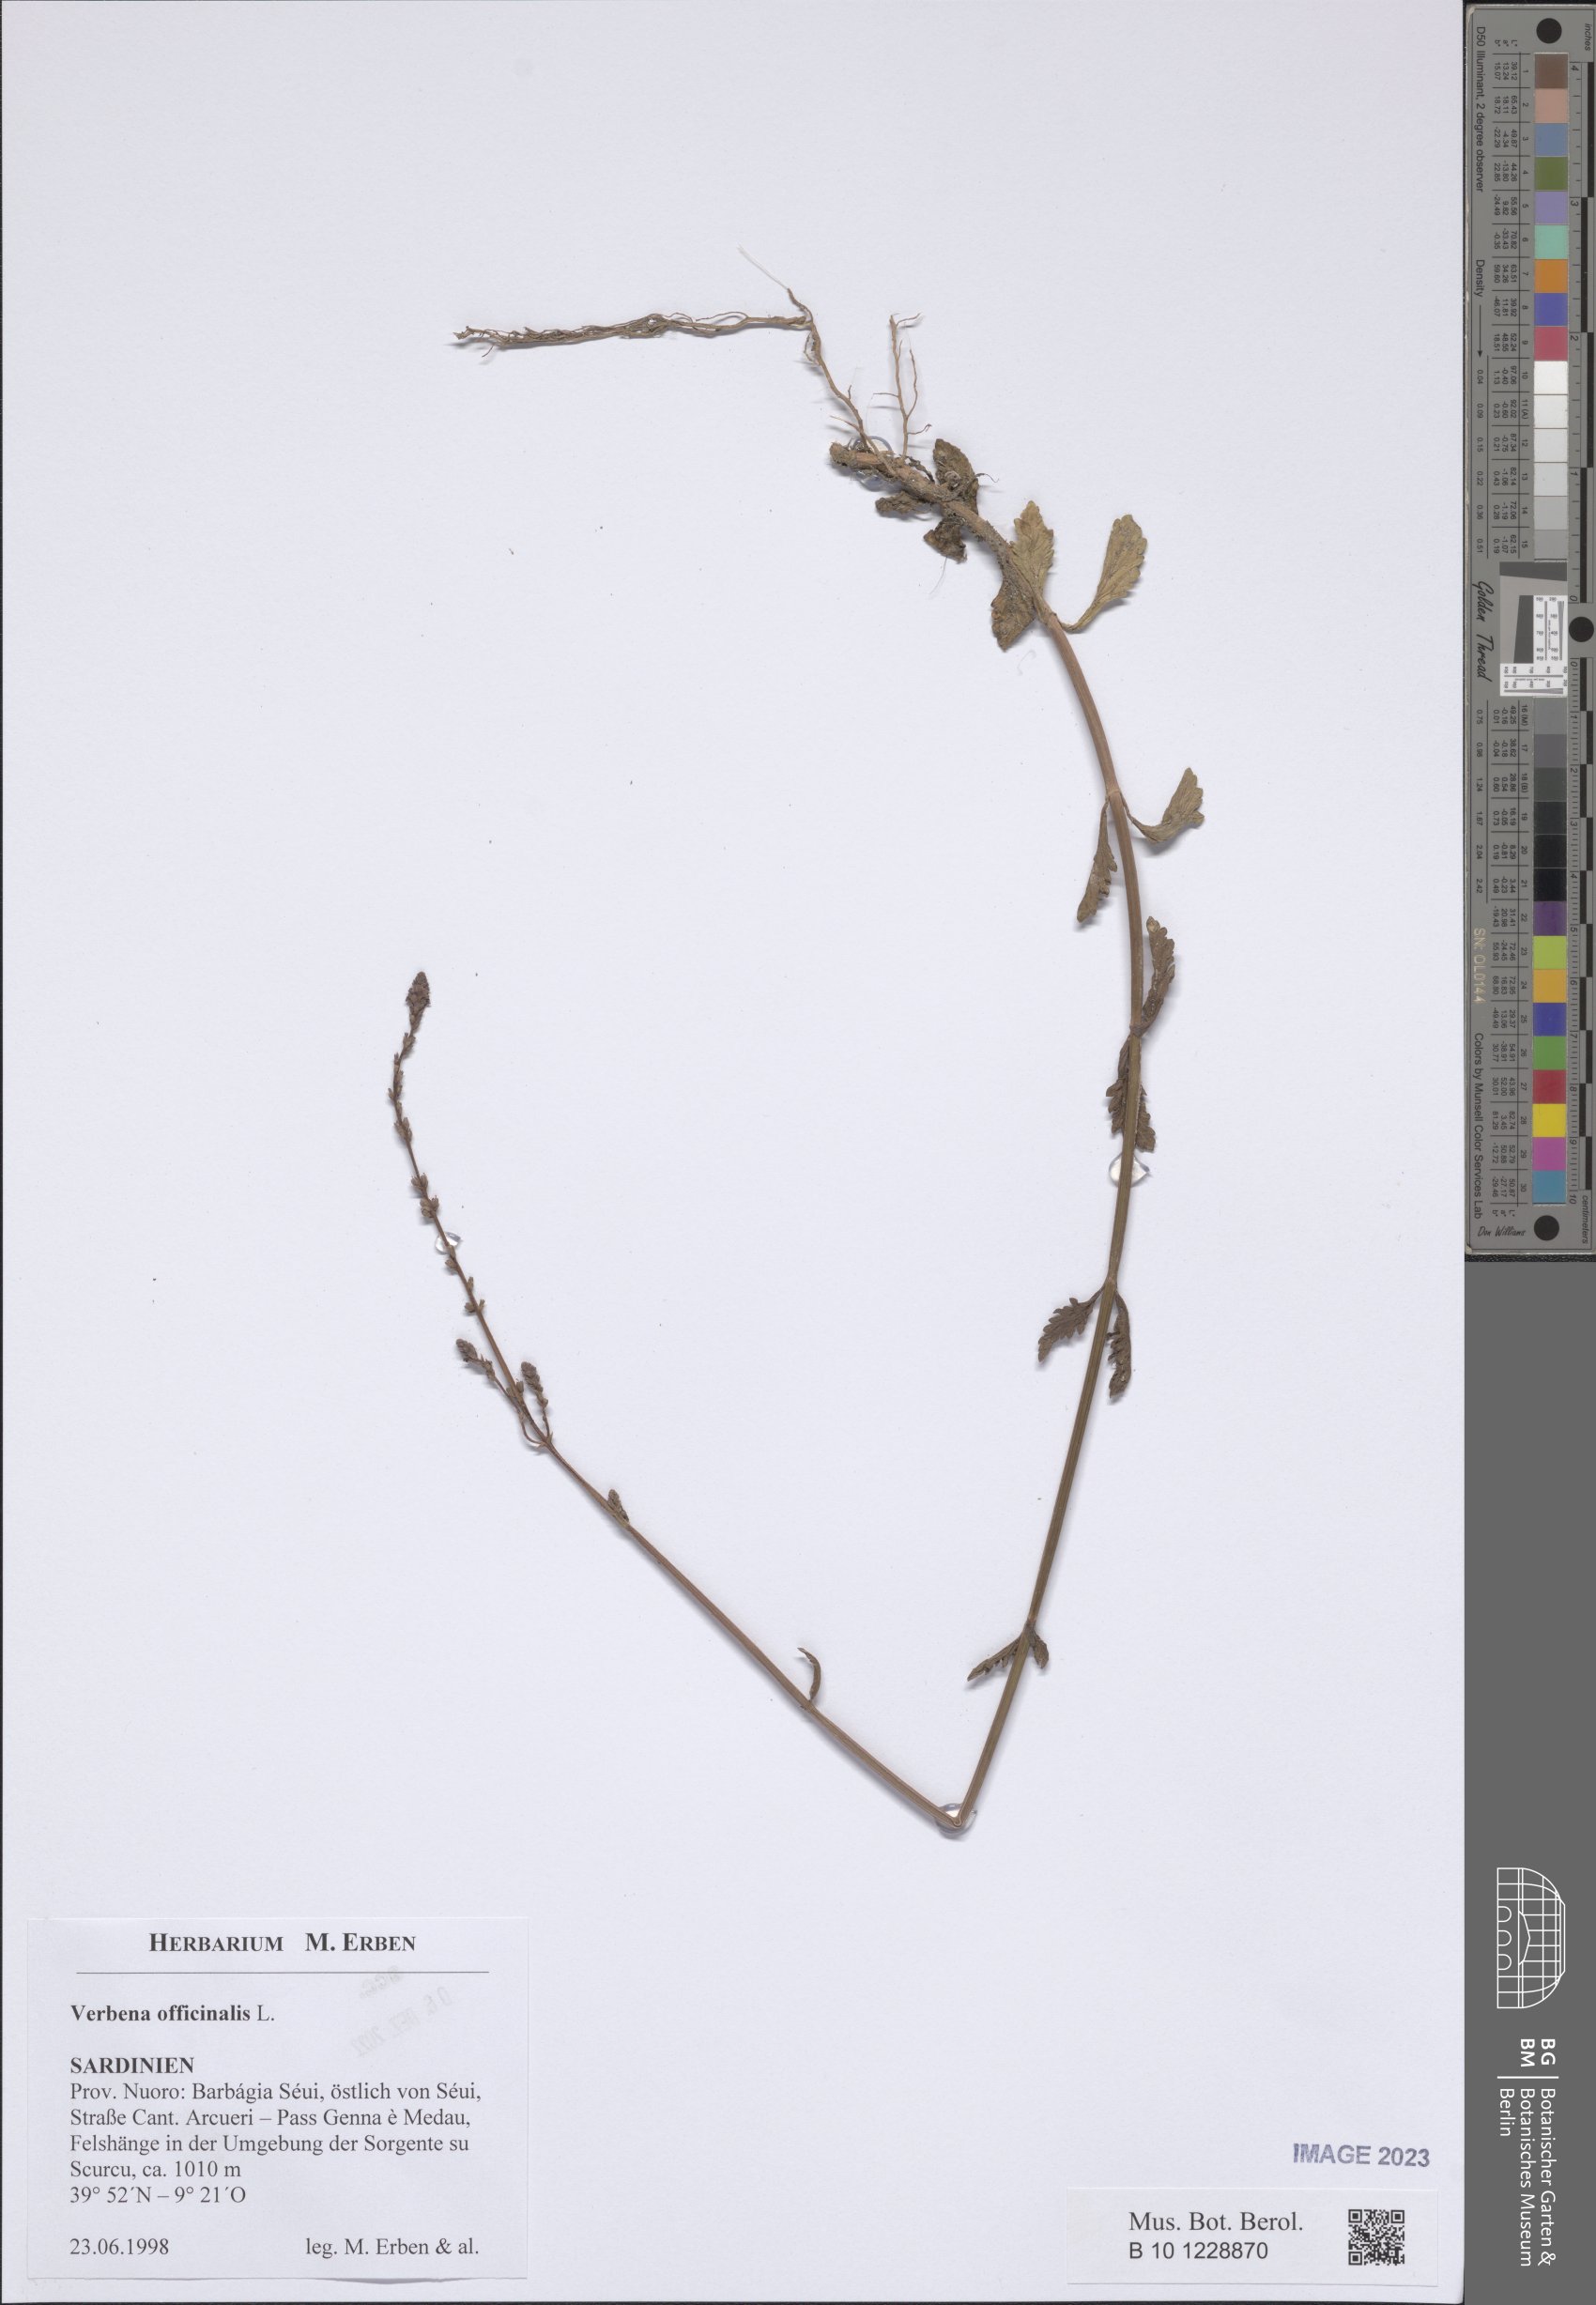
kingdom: Plantae
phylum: Tracheophyta
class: Magnoliopsida
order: Lamiales
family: Verbenaceae
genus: Verbena
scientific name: Verbena officinalis
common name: Vervain
